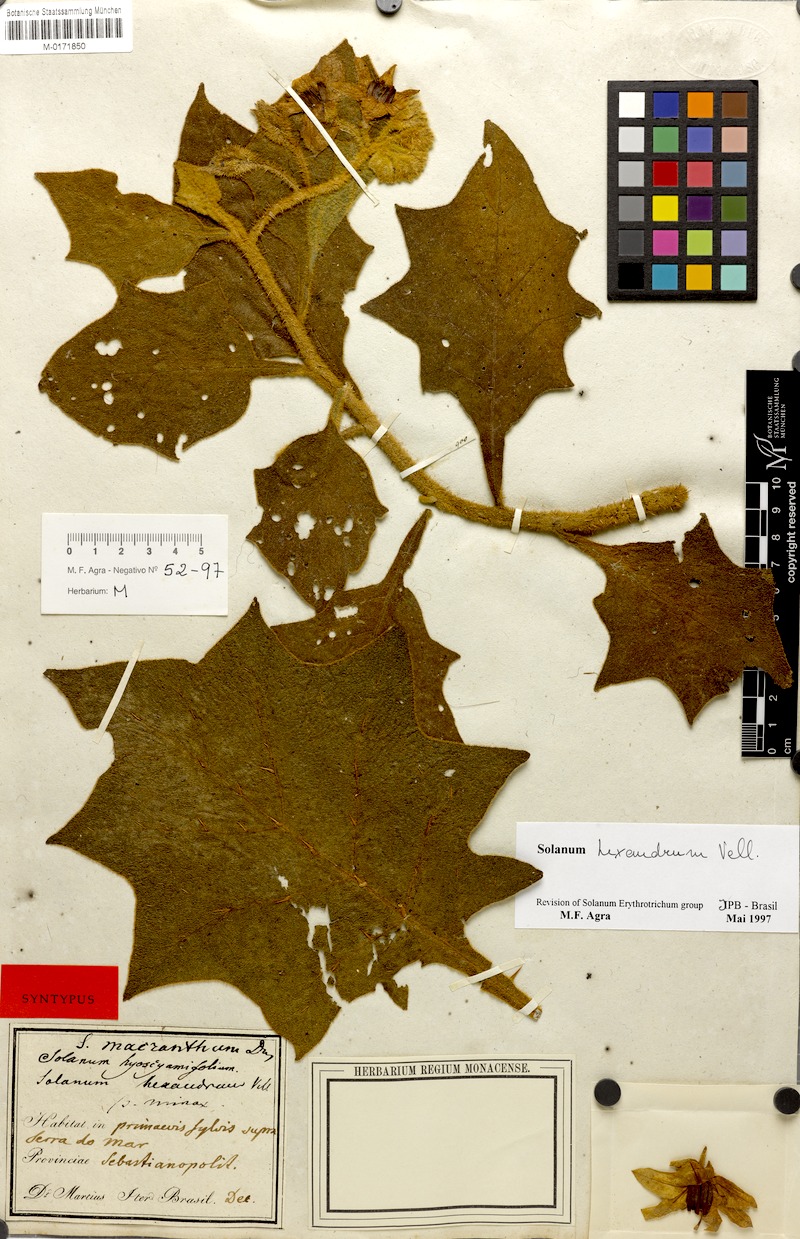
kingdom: Plantae
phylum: Tracheophyta
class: Magnoliopsida
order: Solanales
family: Solanaceae
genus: Solanum
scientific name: Solanum hexandrum
